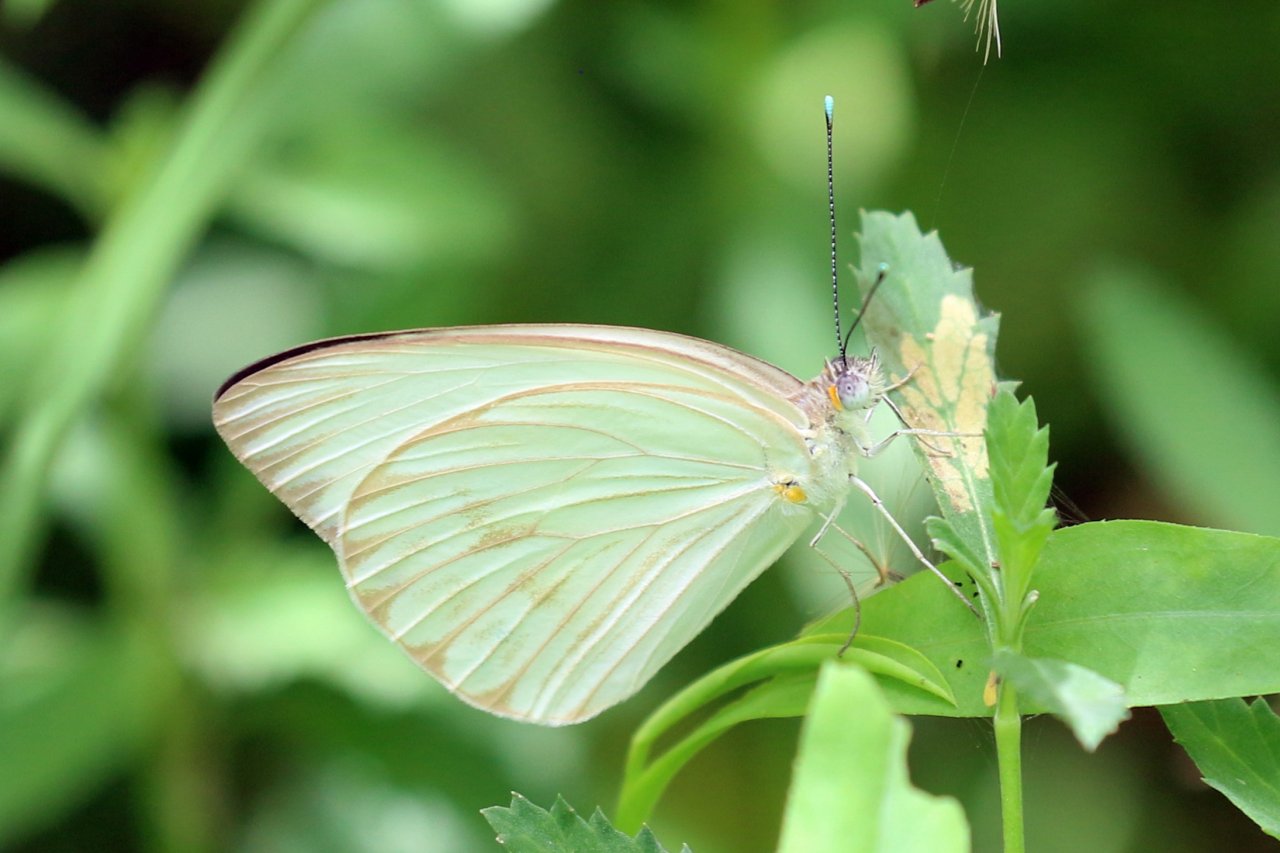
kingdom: Animalia
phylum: Arthropoda
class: Insecta
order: Lepidoptera
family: Pieridae
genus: Ascia
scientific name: Ascia monuste
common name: Great Southern White
